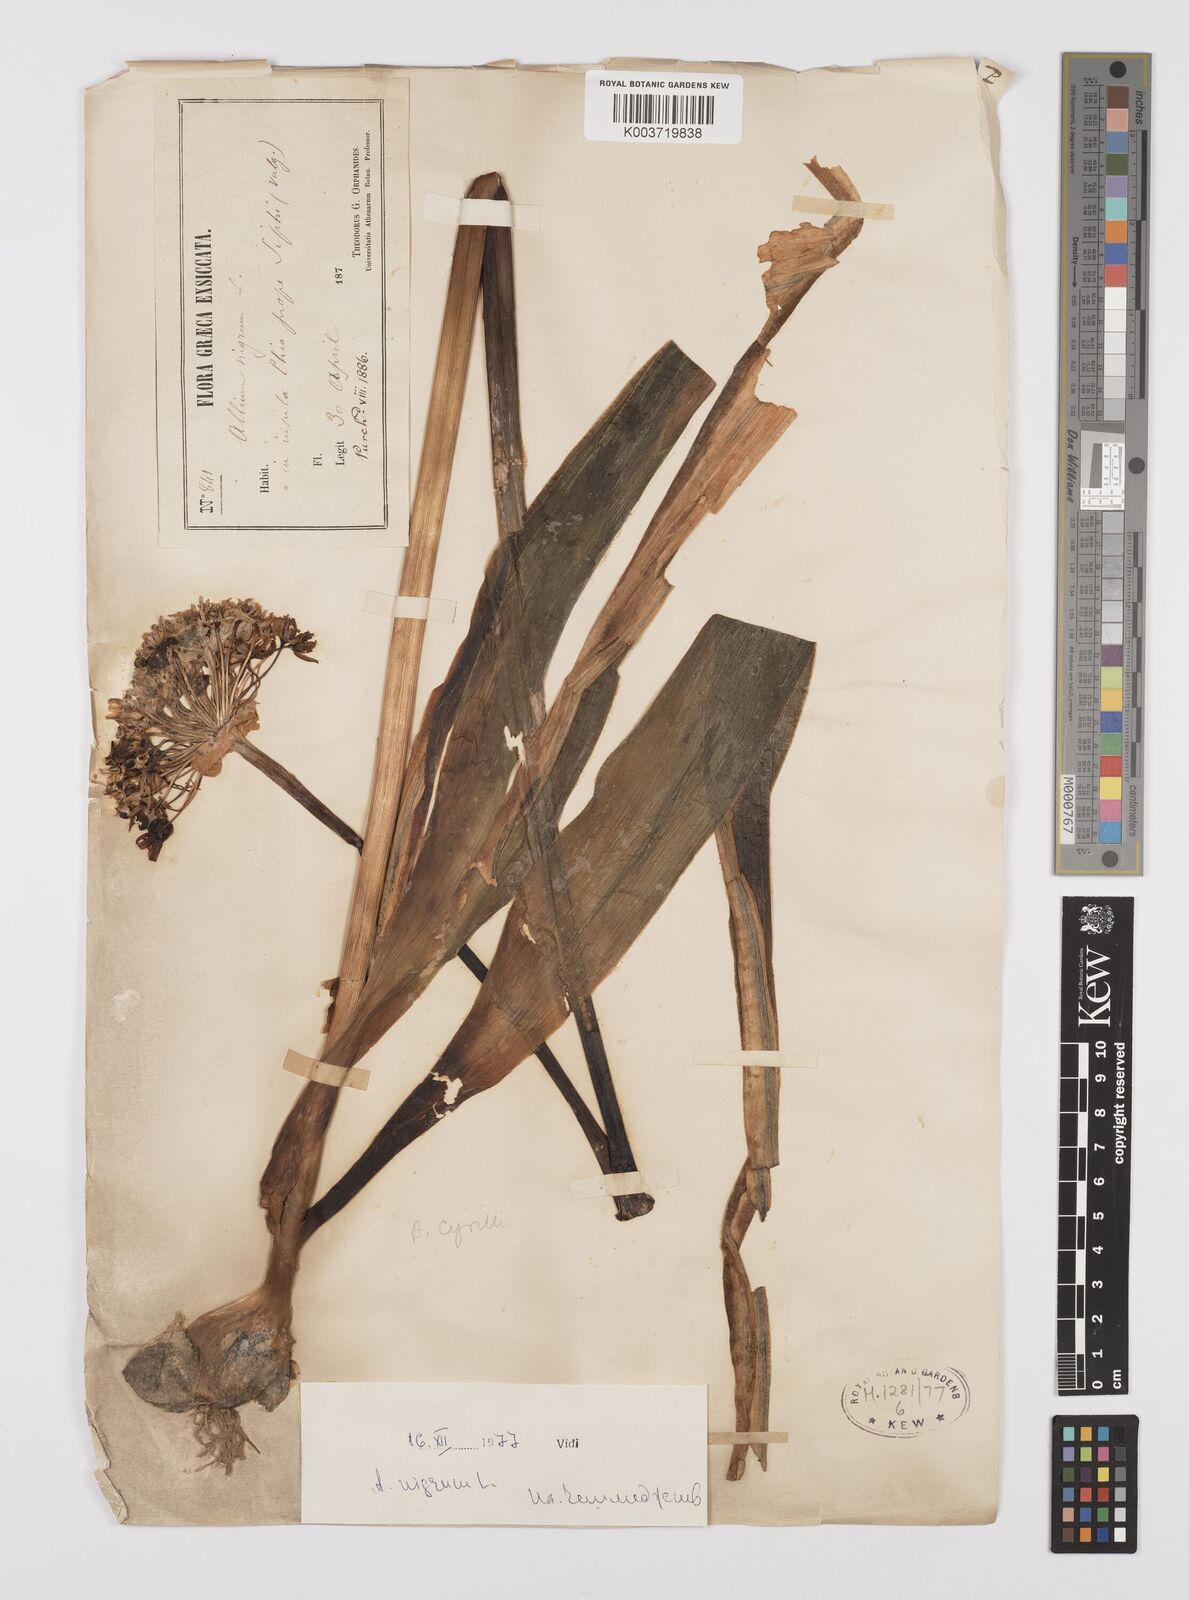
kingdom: Plantae
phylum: Tracheophyta
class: Liliopsida
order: Asparagales
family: Amaryllidaceae
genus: Allium
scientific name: Allium nigrum
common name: Black garlic
